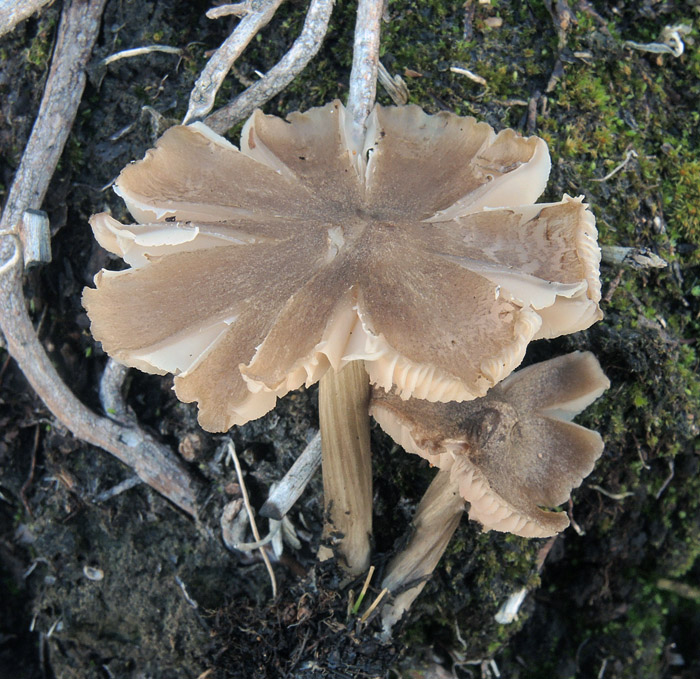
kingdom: Fungi
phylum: Basidiomycota
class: Agaricomycetes
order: Agaricales
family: Entolomataceae
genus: Entoloma
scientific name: Entoloma elodes
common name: mørkægget rødblad
